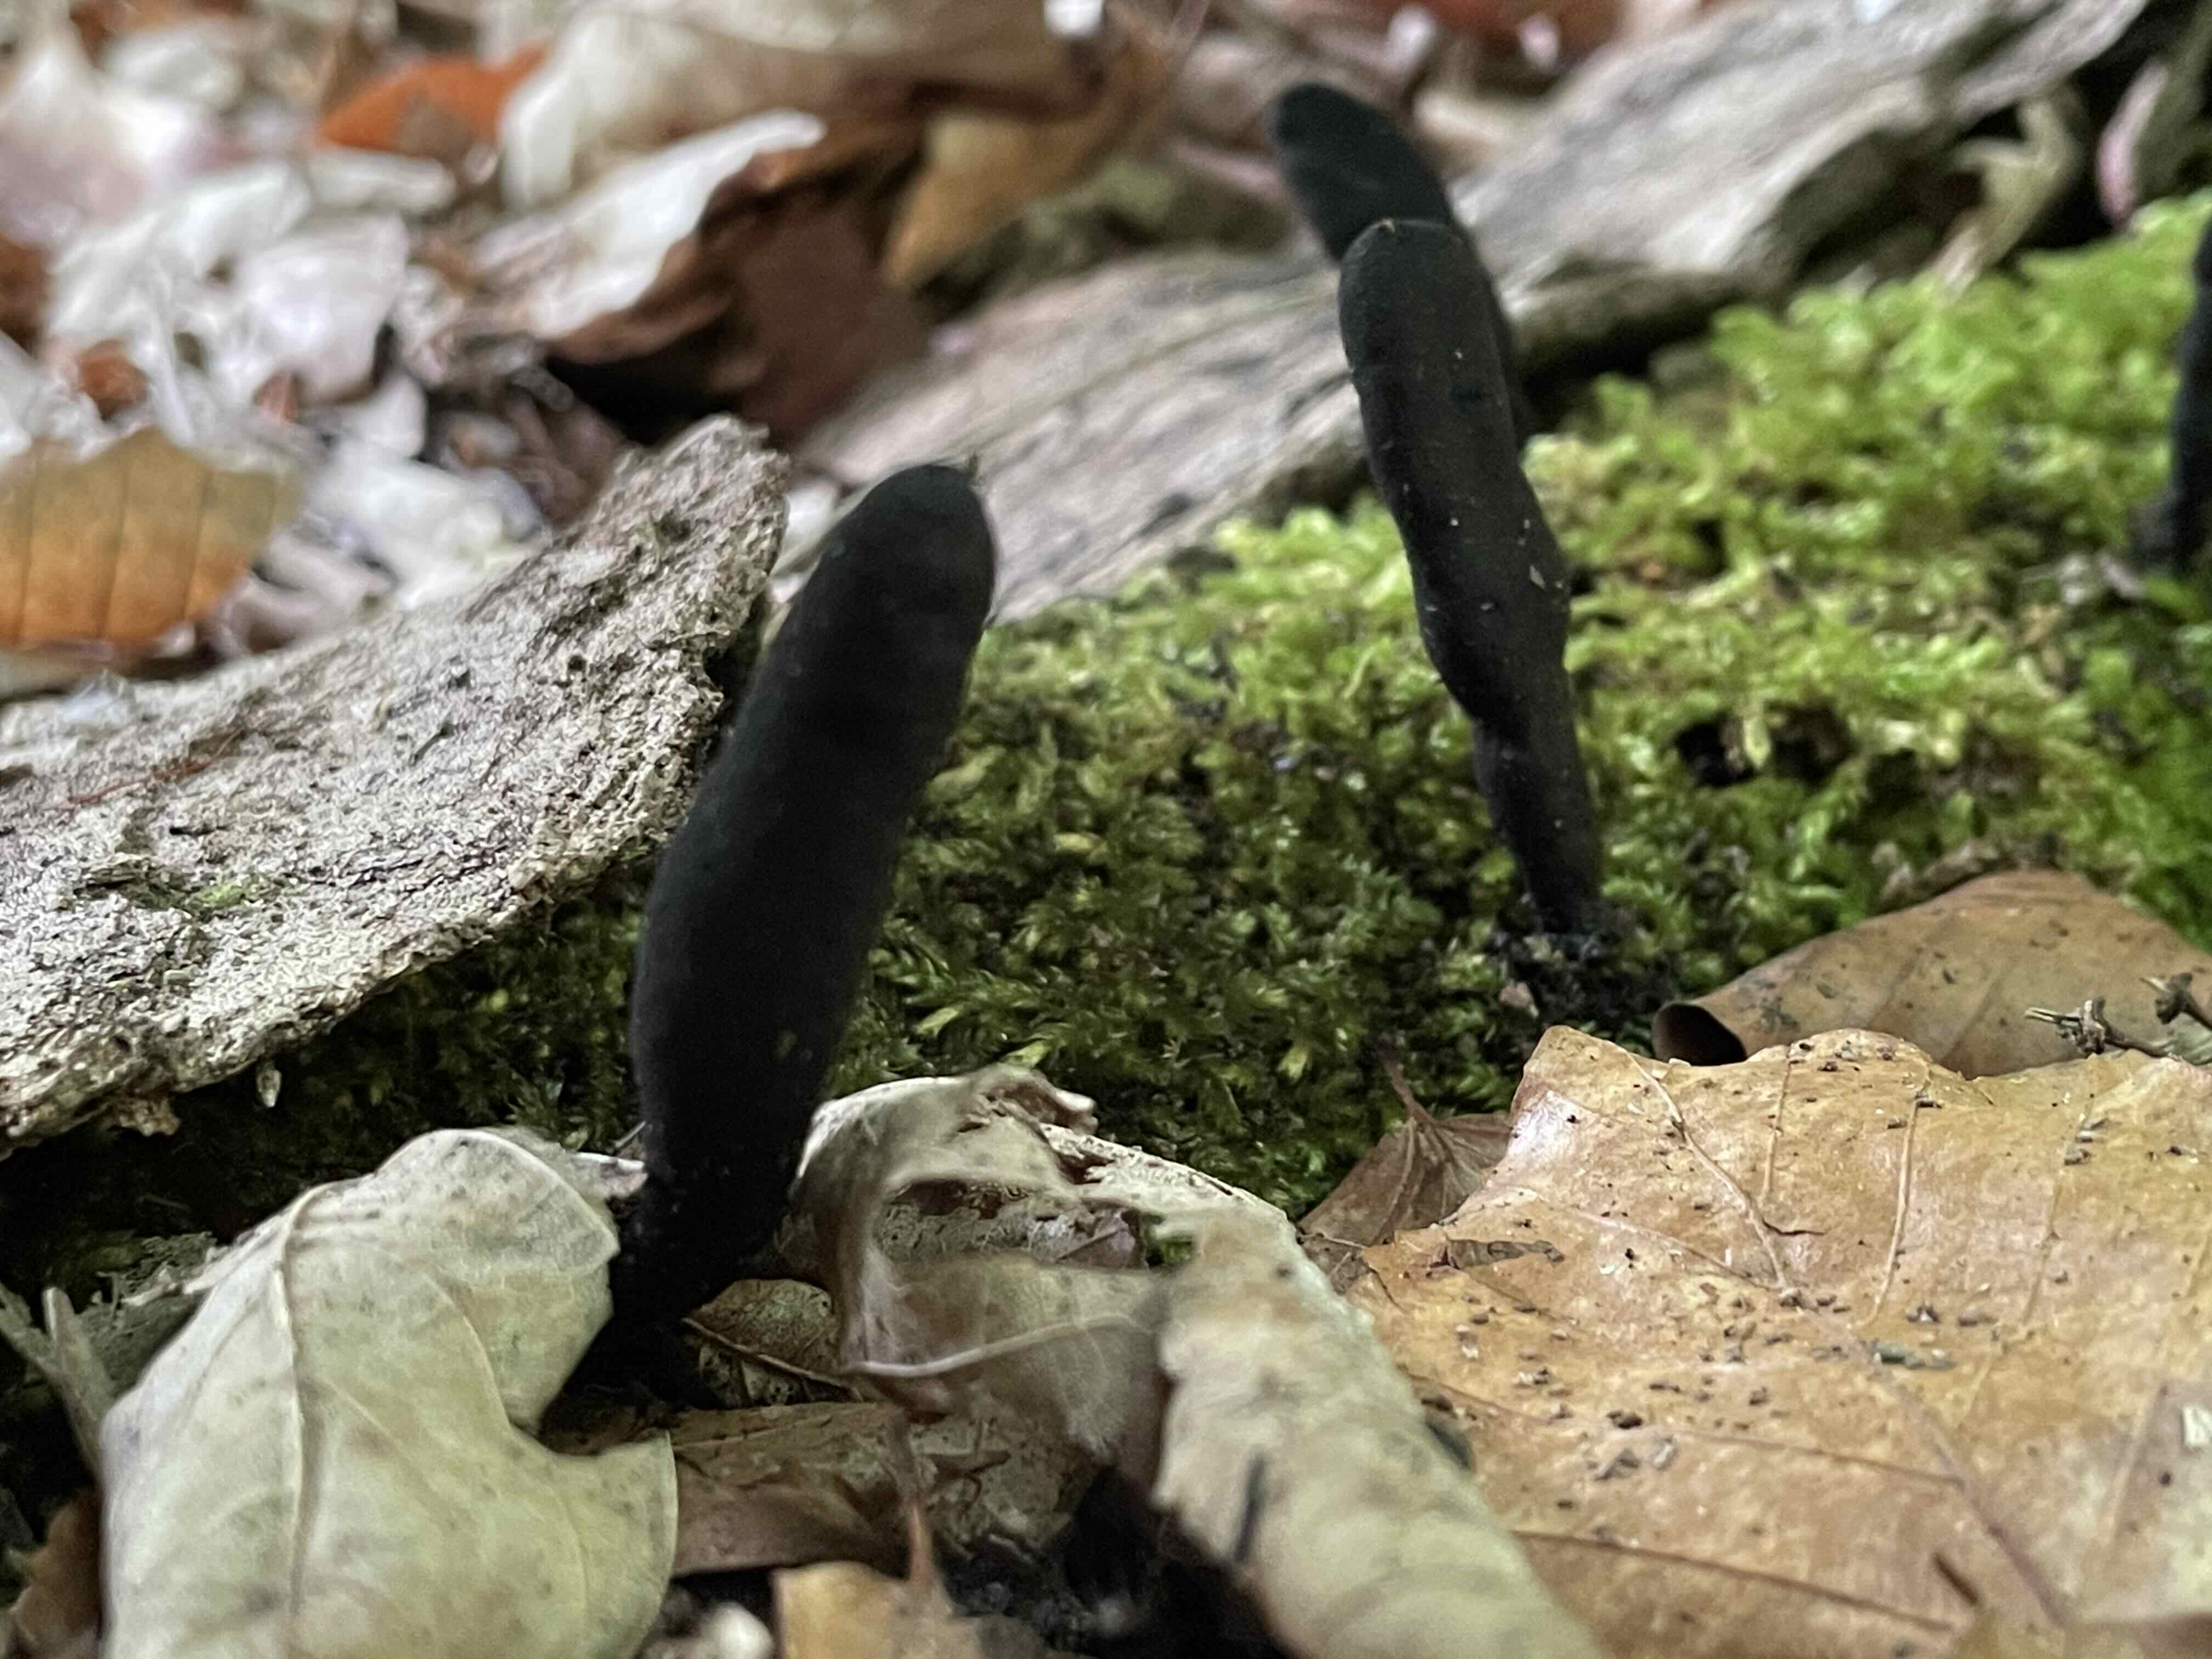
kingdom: Fungi
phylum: Ascomycota
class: Sordariomycetes
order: Xylariales
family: Xylariaceae
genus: Xylaria
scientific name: Xylaria longipes
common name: slank stødsvamp
